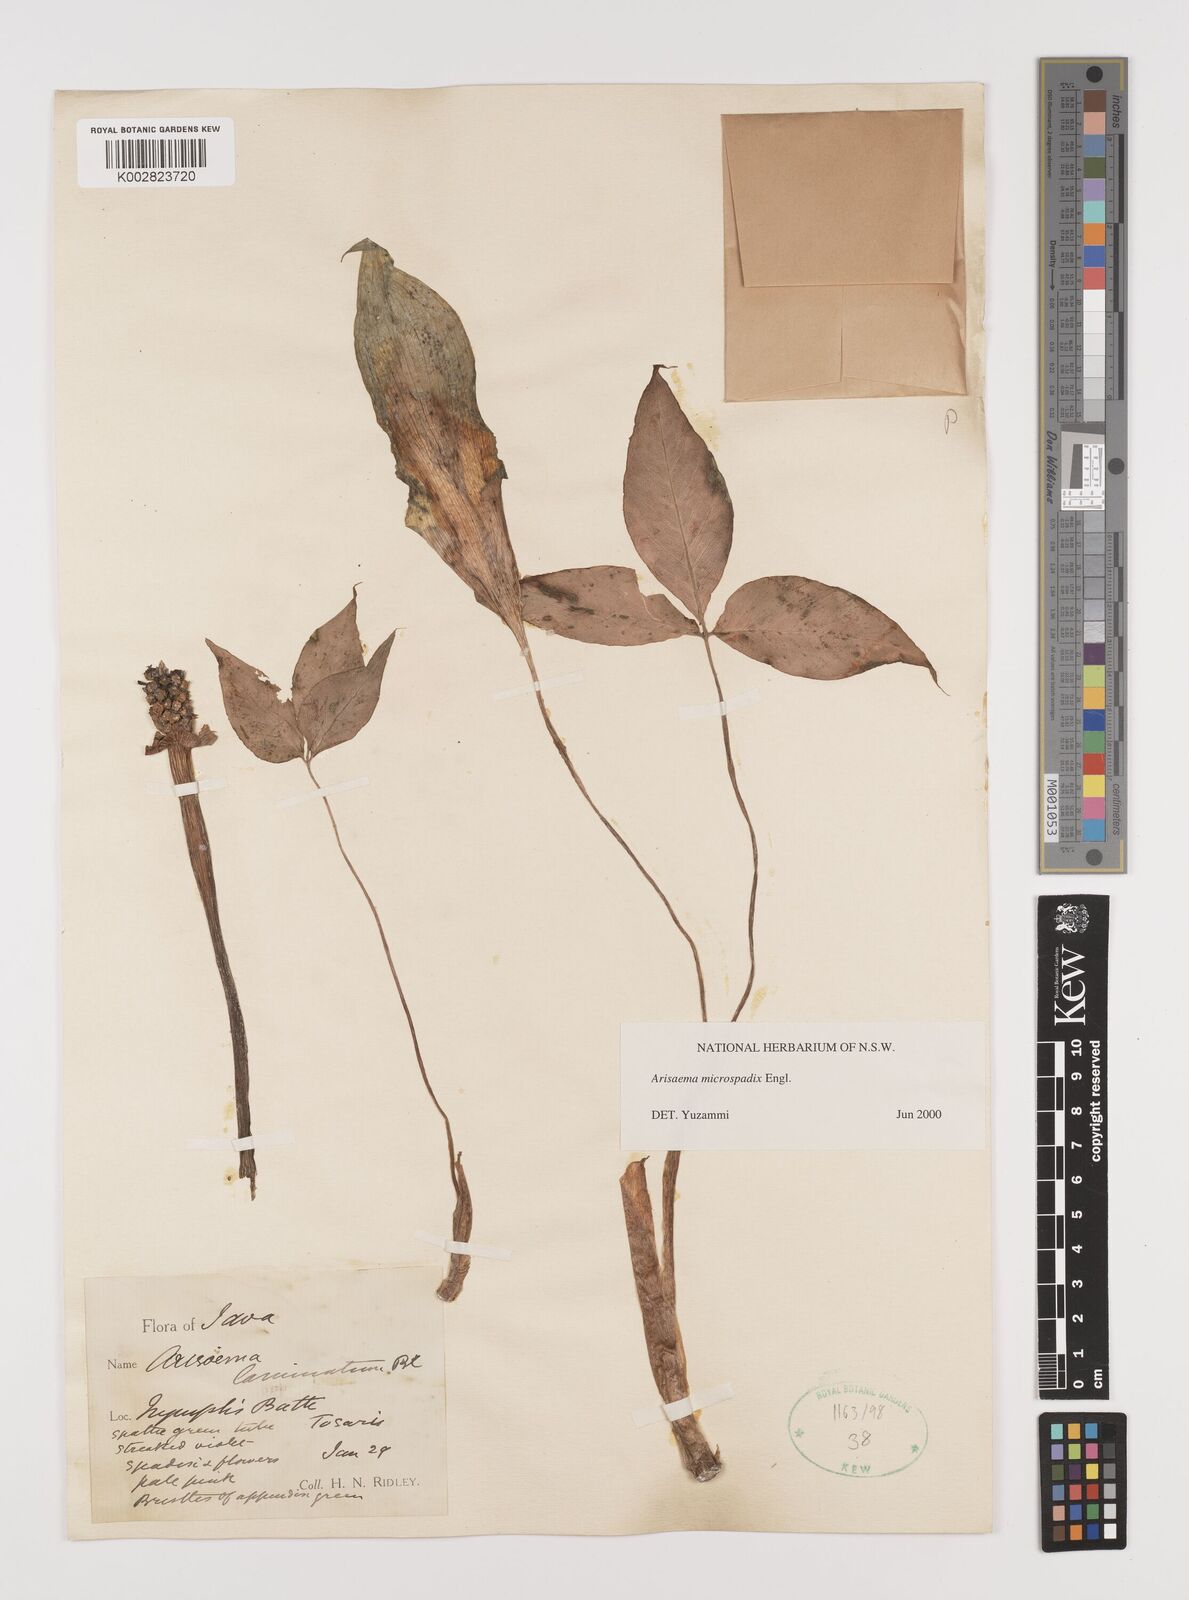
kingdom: Plantae
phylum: Tracheophyta
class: Liliopsida
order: Alismatales
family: Araceae
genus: Arisaema
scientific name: Arisaema microspadix
